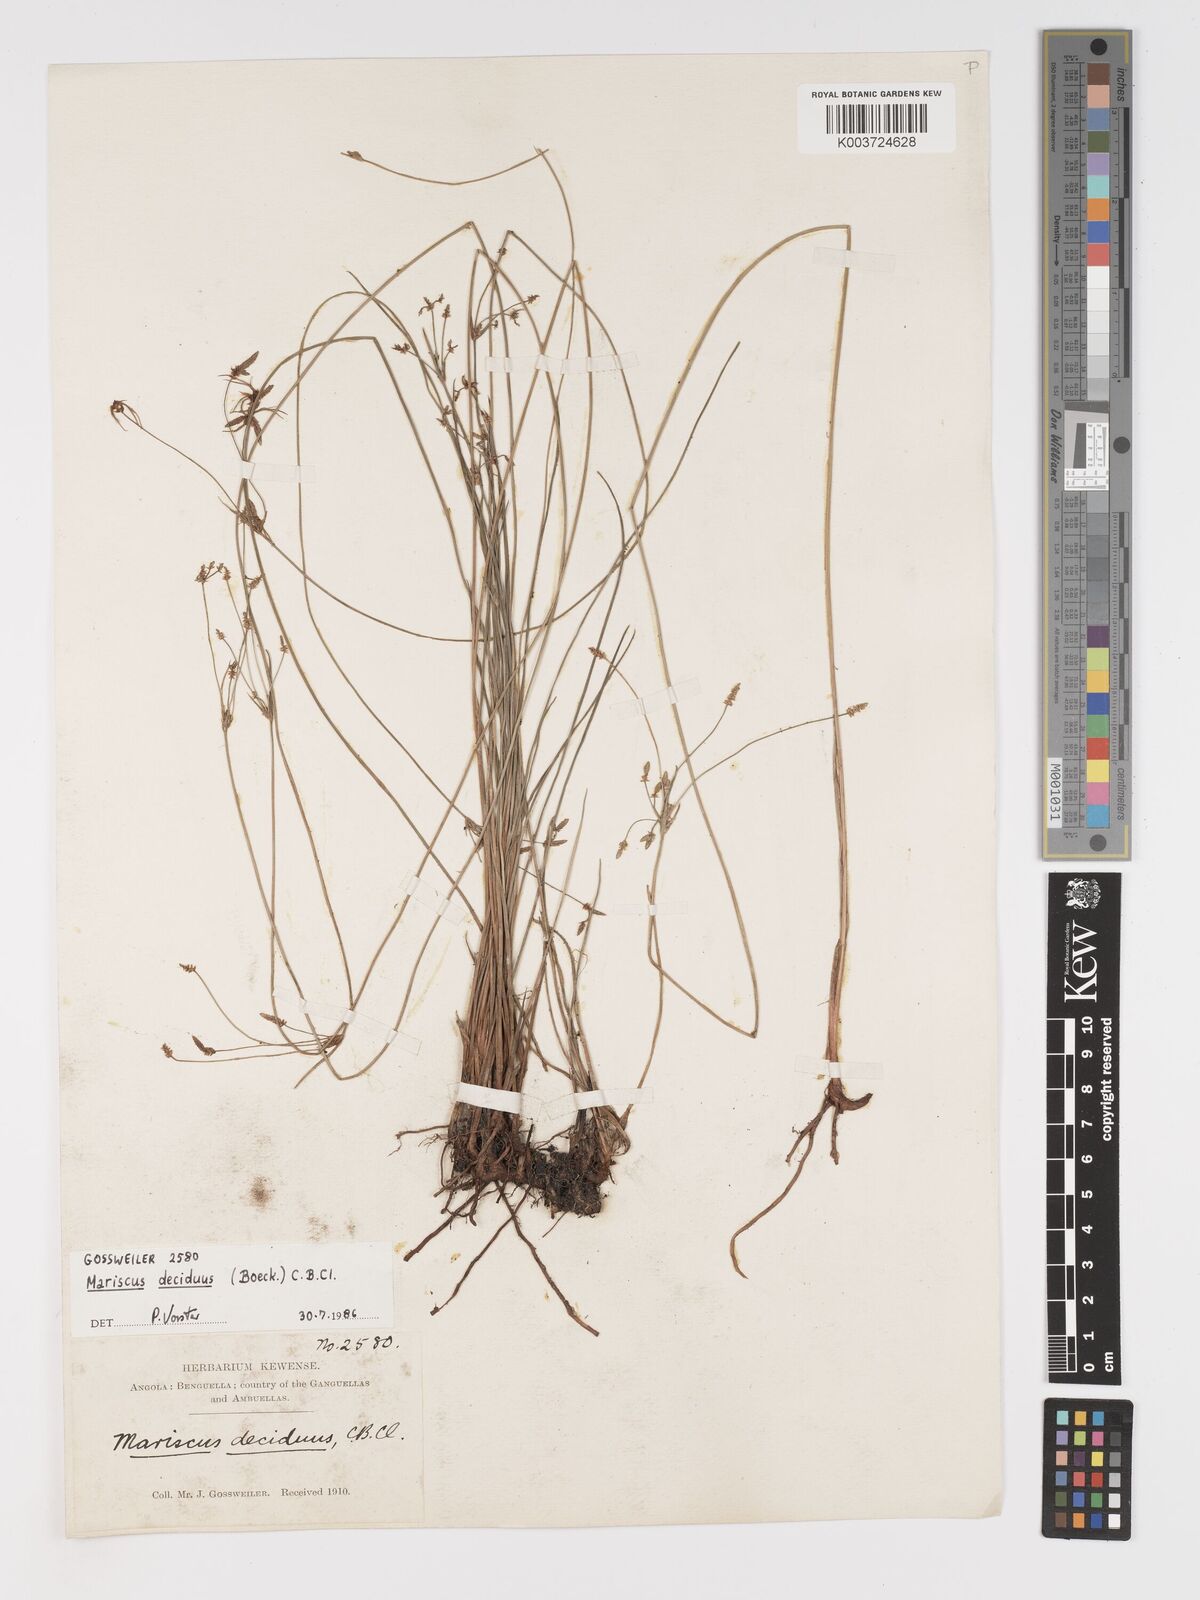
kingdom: Plantae
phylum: Tracheophyta
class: Liliopsida
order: Poales
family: Cyperaceae
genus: Cyperus
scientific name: Cyperus deciduus
